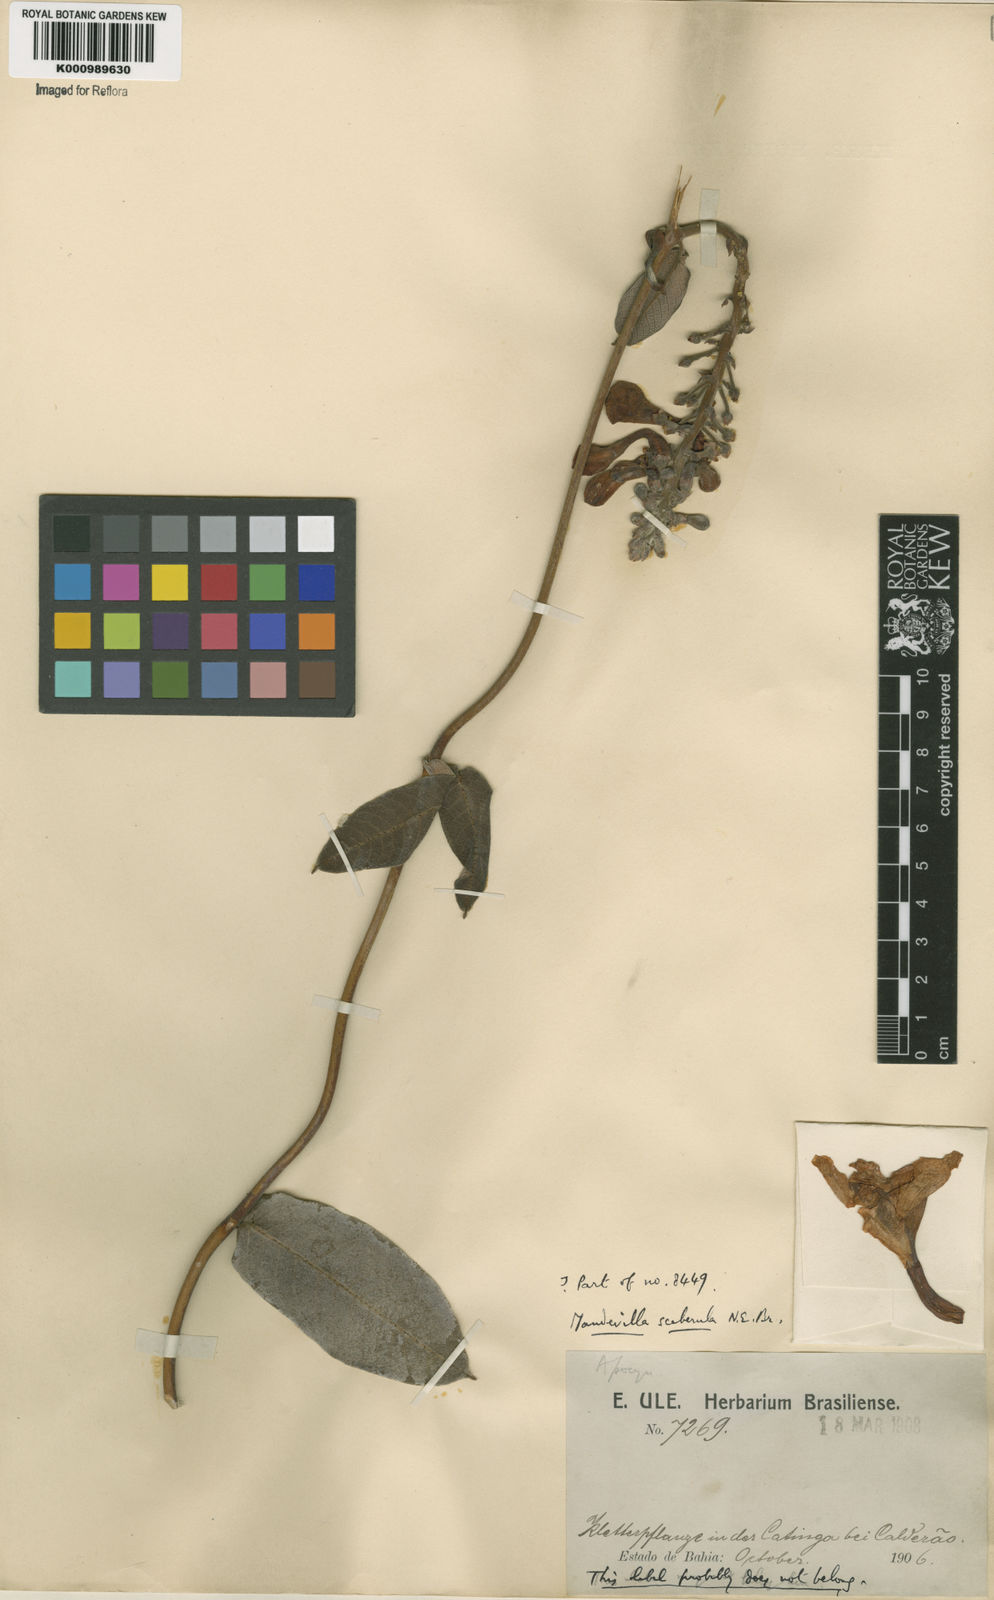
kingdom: Plantae
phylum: Tracheophyta
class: Magnoliopsida
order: Gentianales
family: Apocynaceae
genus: Mandevilla
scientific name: Mandevilla scaberula
